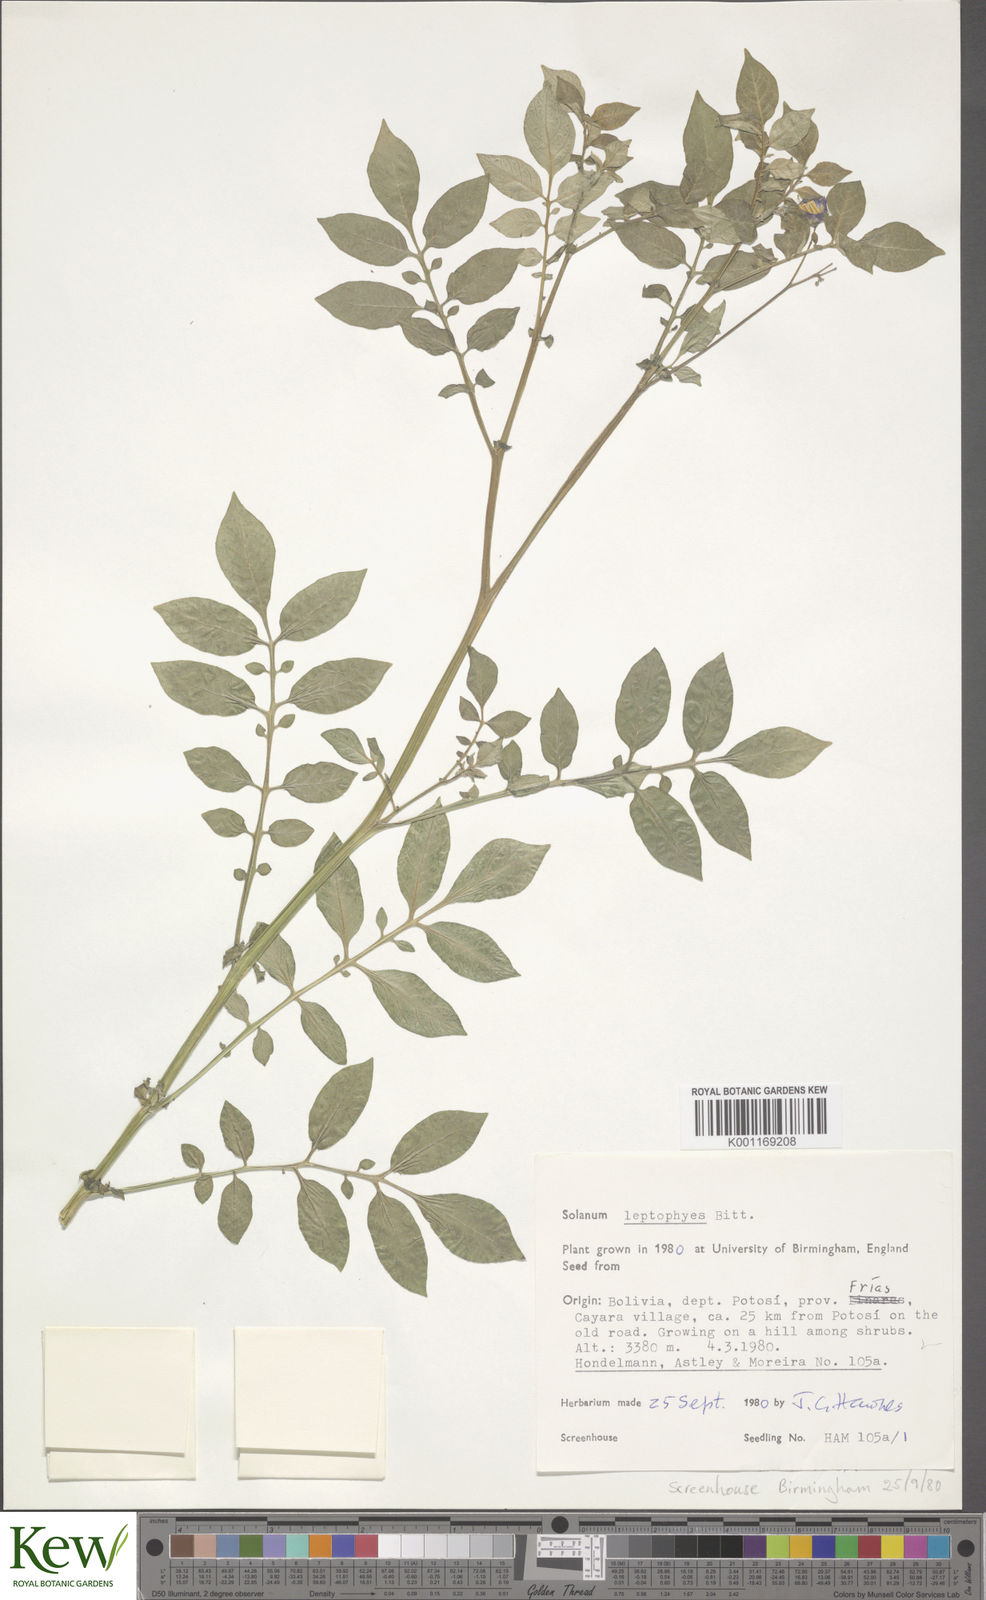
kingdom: Plantae
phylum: Tracheophyta
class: Magnoliopsida
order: Solanales
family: Solanaceae
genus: Solanum
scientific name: Solanum brevicaule
